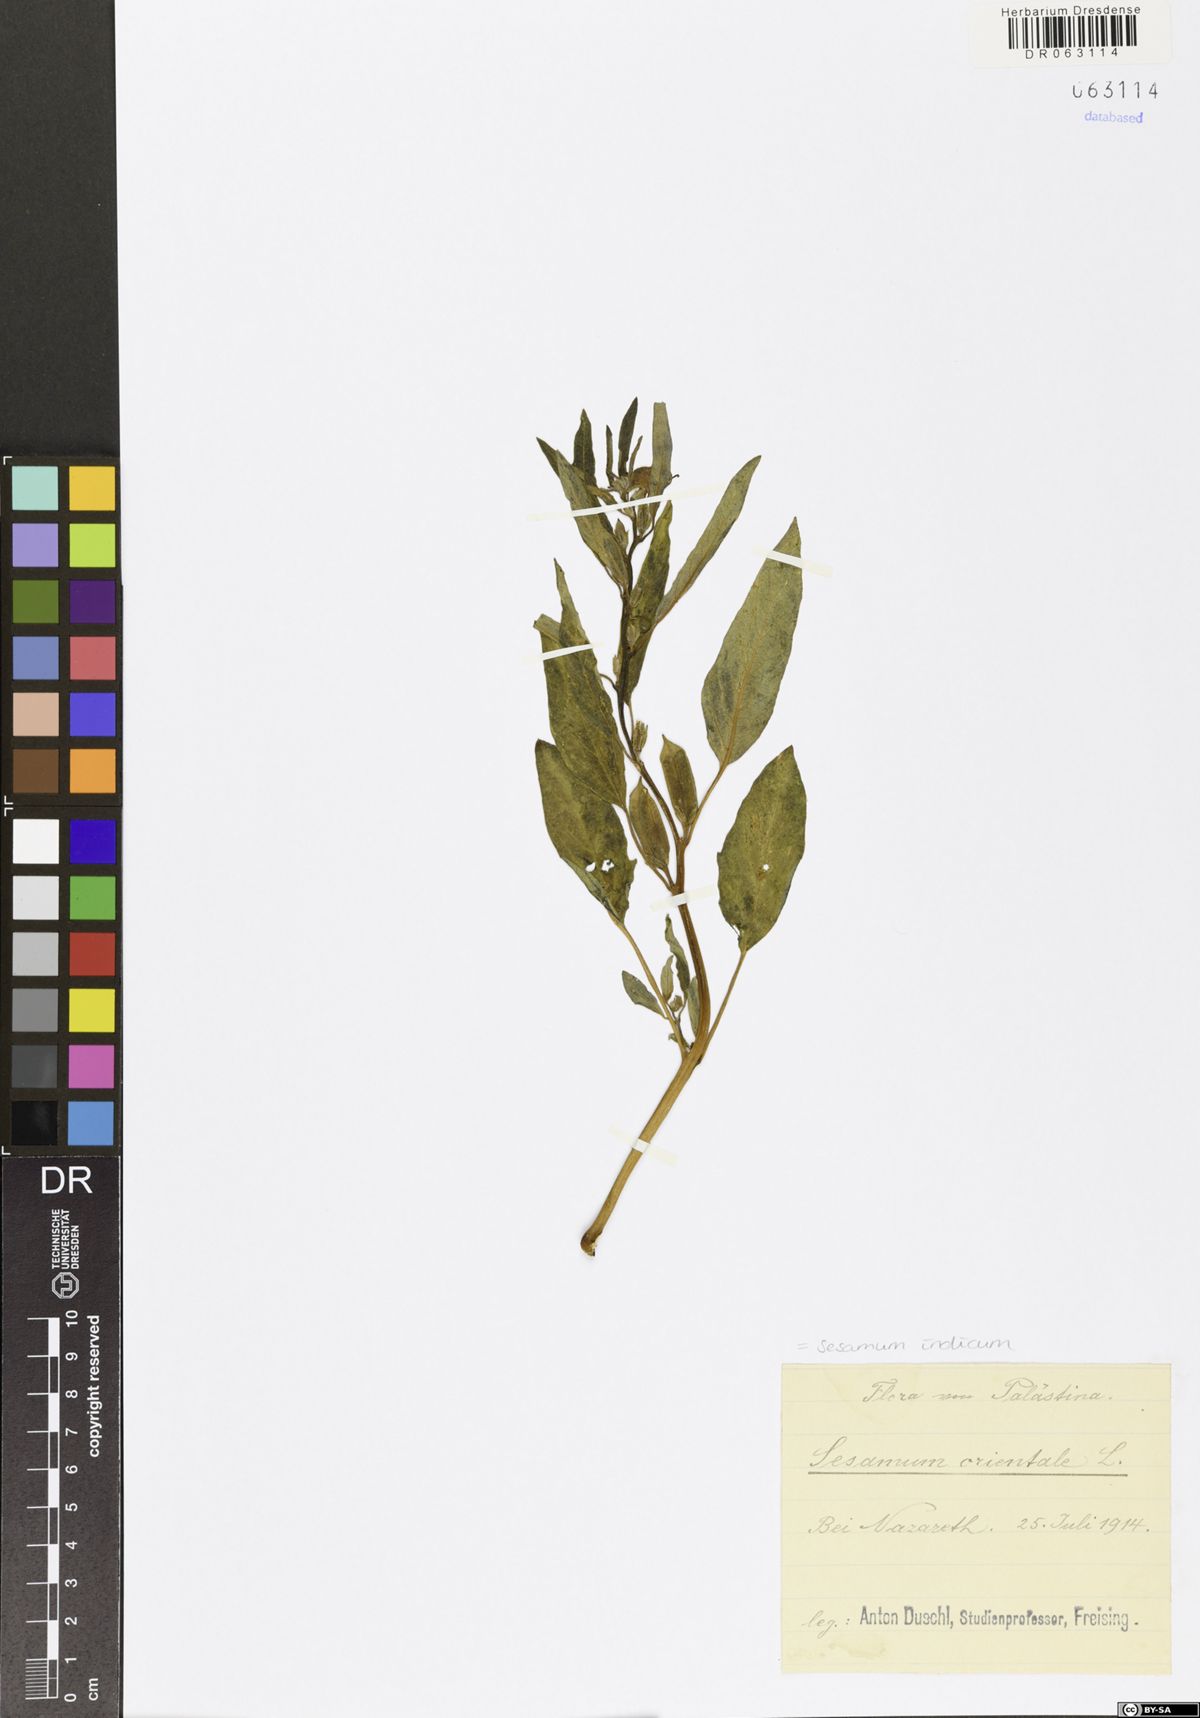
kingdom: Plantae
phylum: Tracheophyta
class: Magnoliopsida
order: Lamiales
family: Pedaliaceae
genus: Sesamum
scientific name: Sesamum indicum
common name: Sesame
